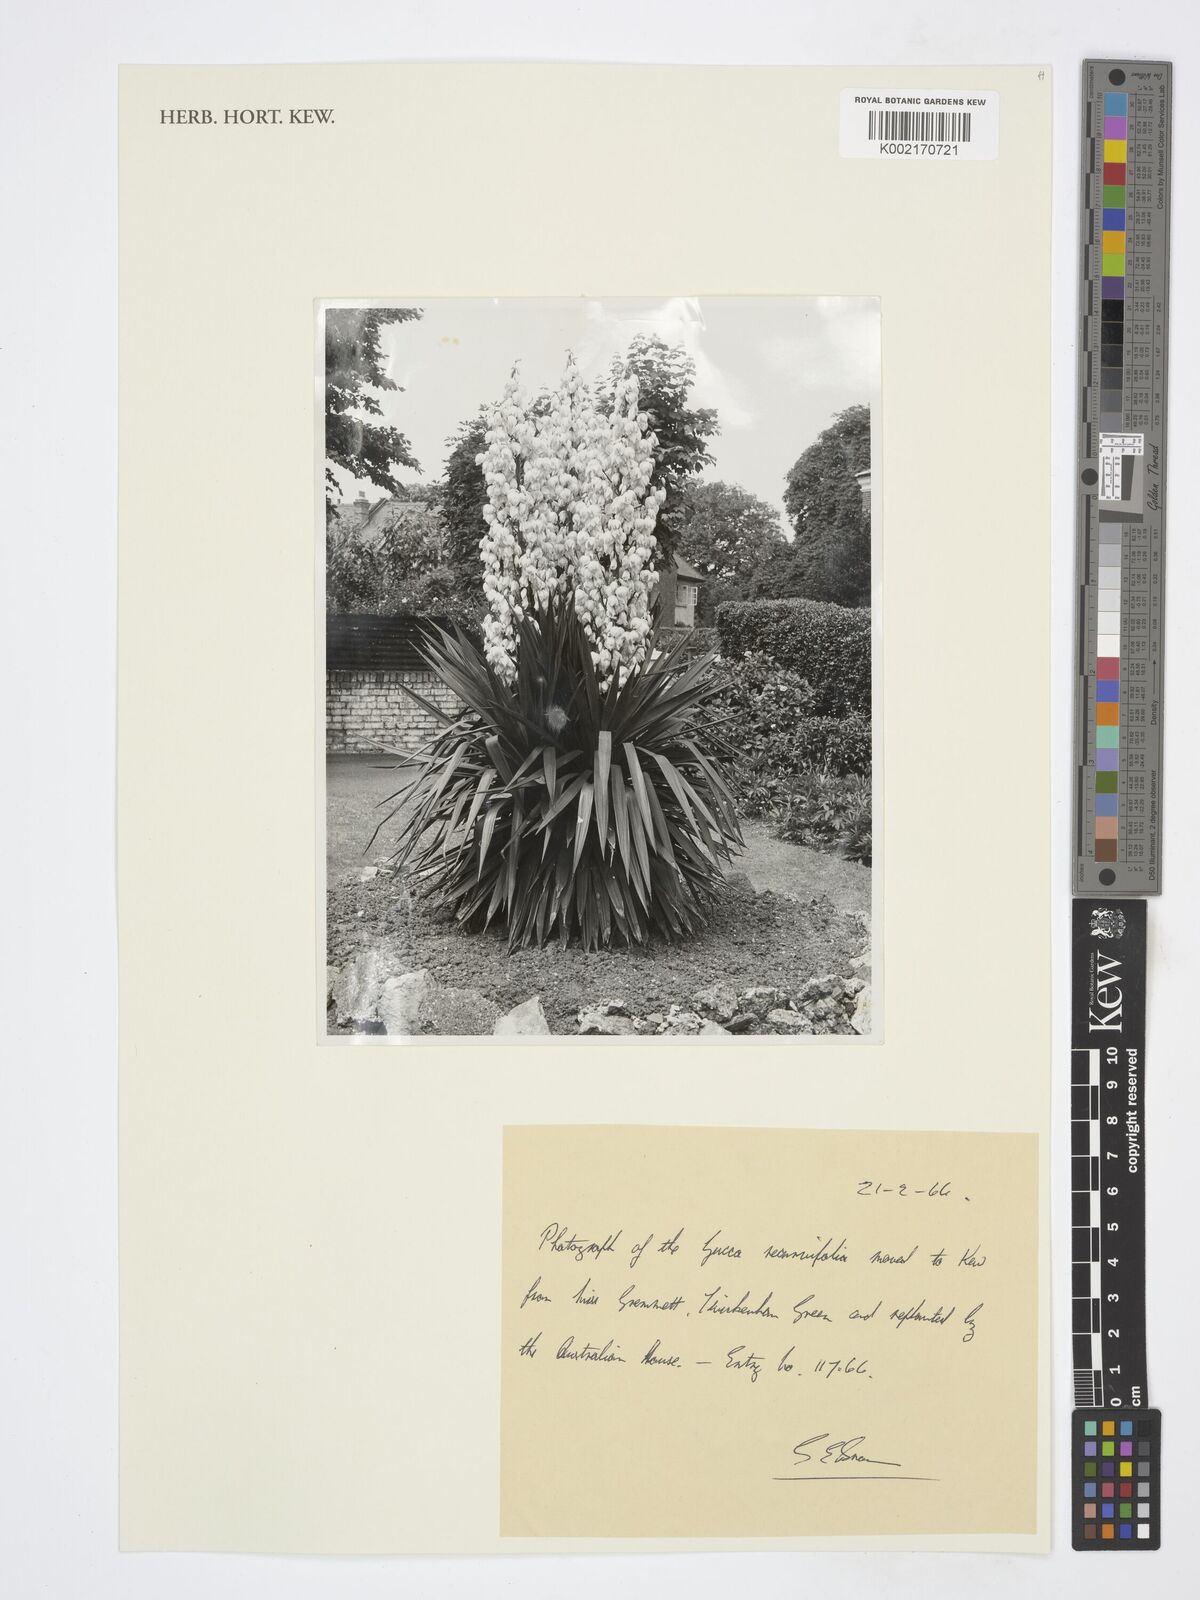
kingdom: Plantae
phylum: Tracheophyta
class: Liliopsida
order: Asparagales
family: Asparagaceae
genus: Yucca
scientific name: Yucca
